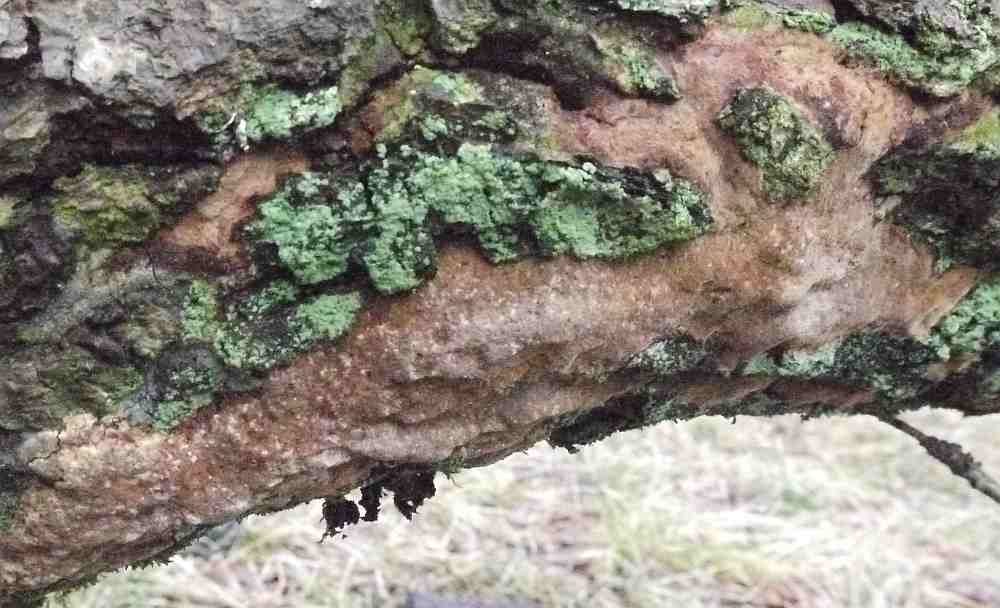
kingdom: Fungi
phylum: Basidiomycota
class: Agaricomycetes
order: Hymenochaetales
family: Hymenochaetaceae
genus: Fuscoporia
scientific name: Fuscoporia ferrea
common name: skorpe-ildporesvamp
